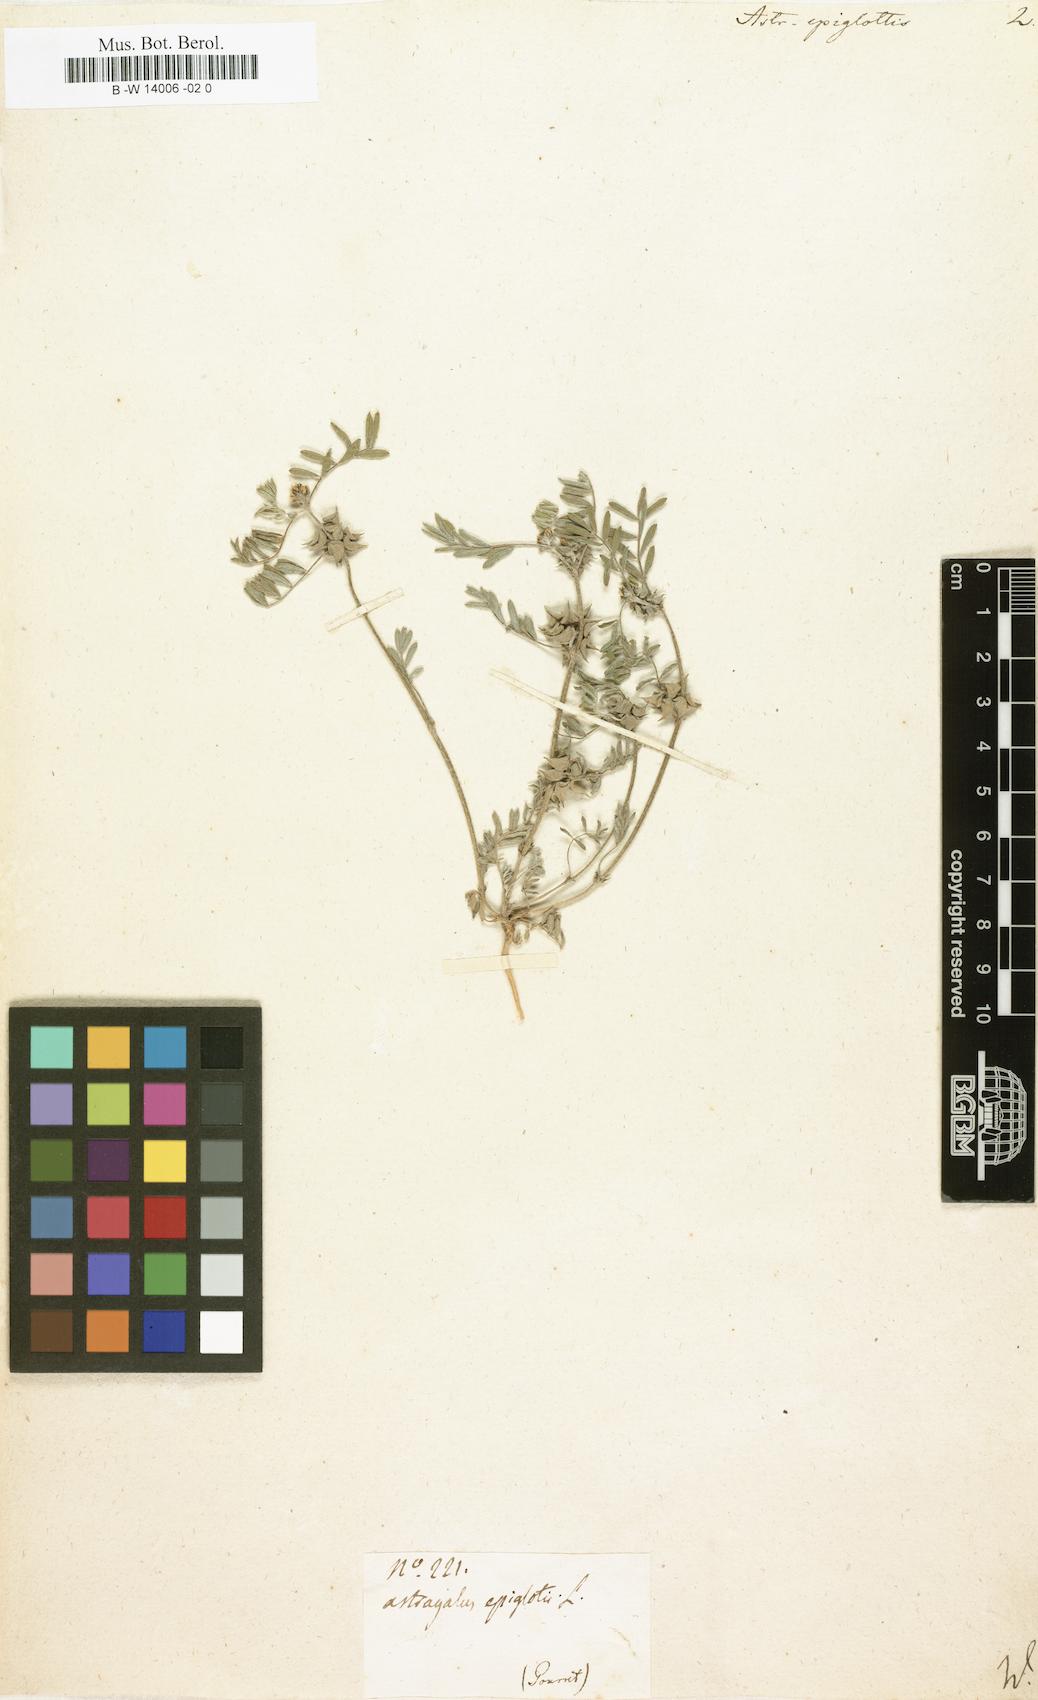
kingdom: Plantae
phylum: Tracheophyta
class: Magnoliopsida
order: Fabales
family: Fabaceae
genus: Biserrula
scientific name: Biserrula epiglottis
